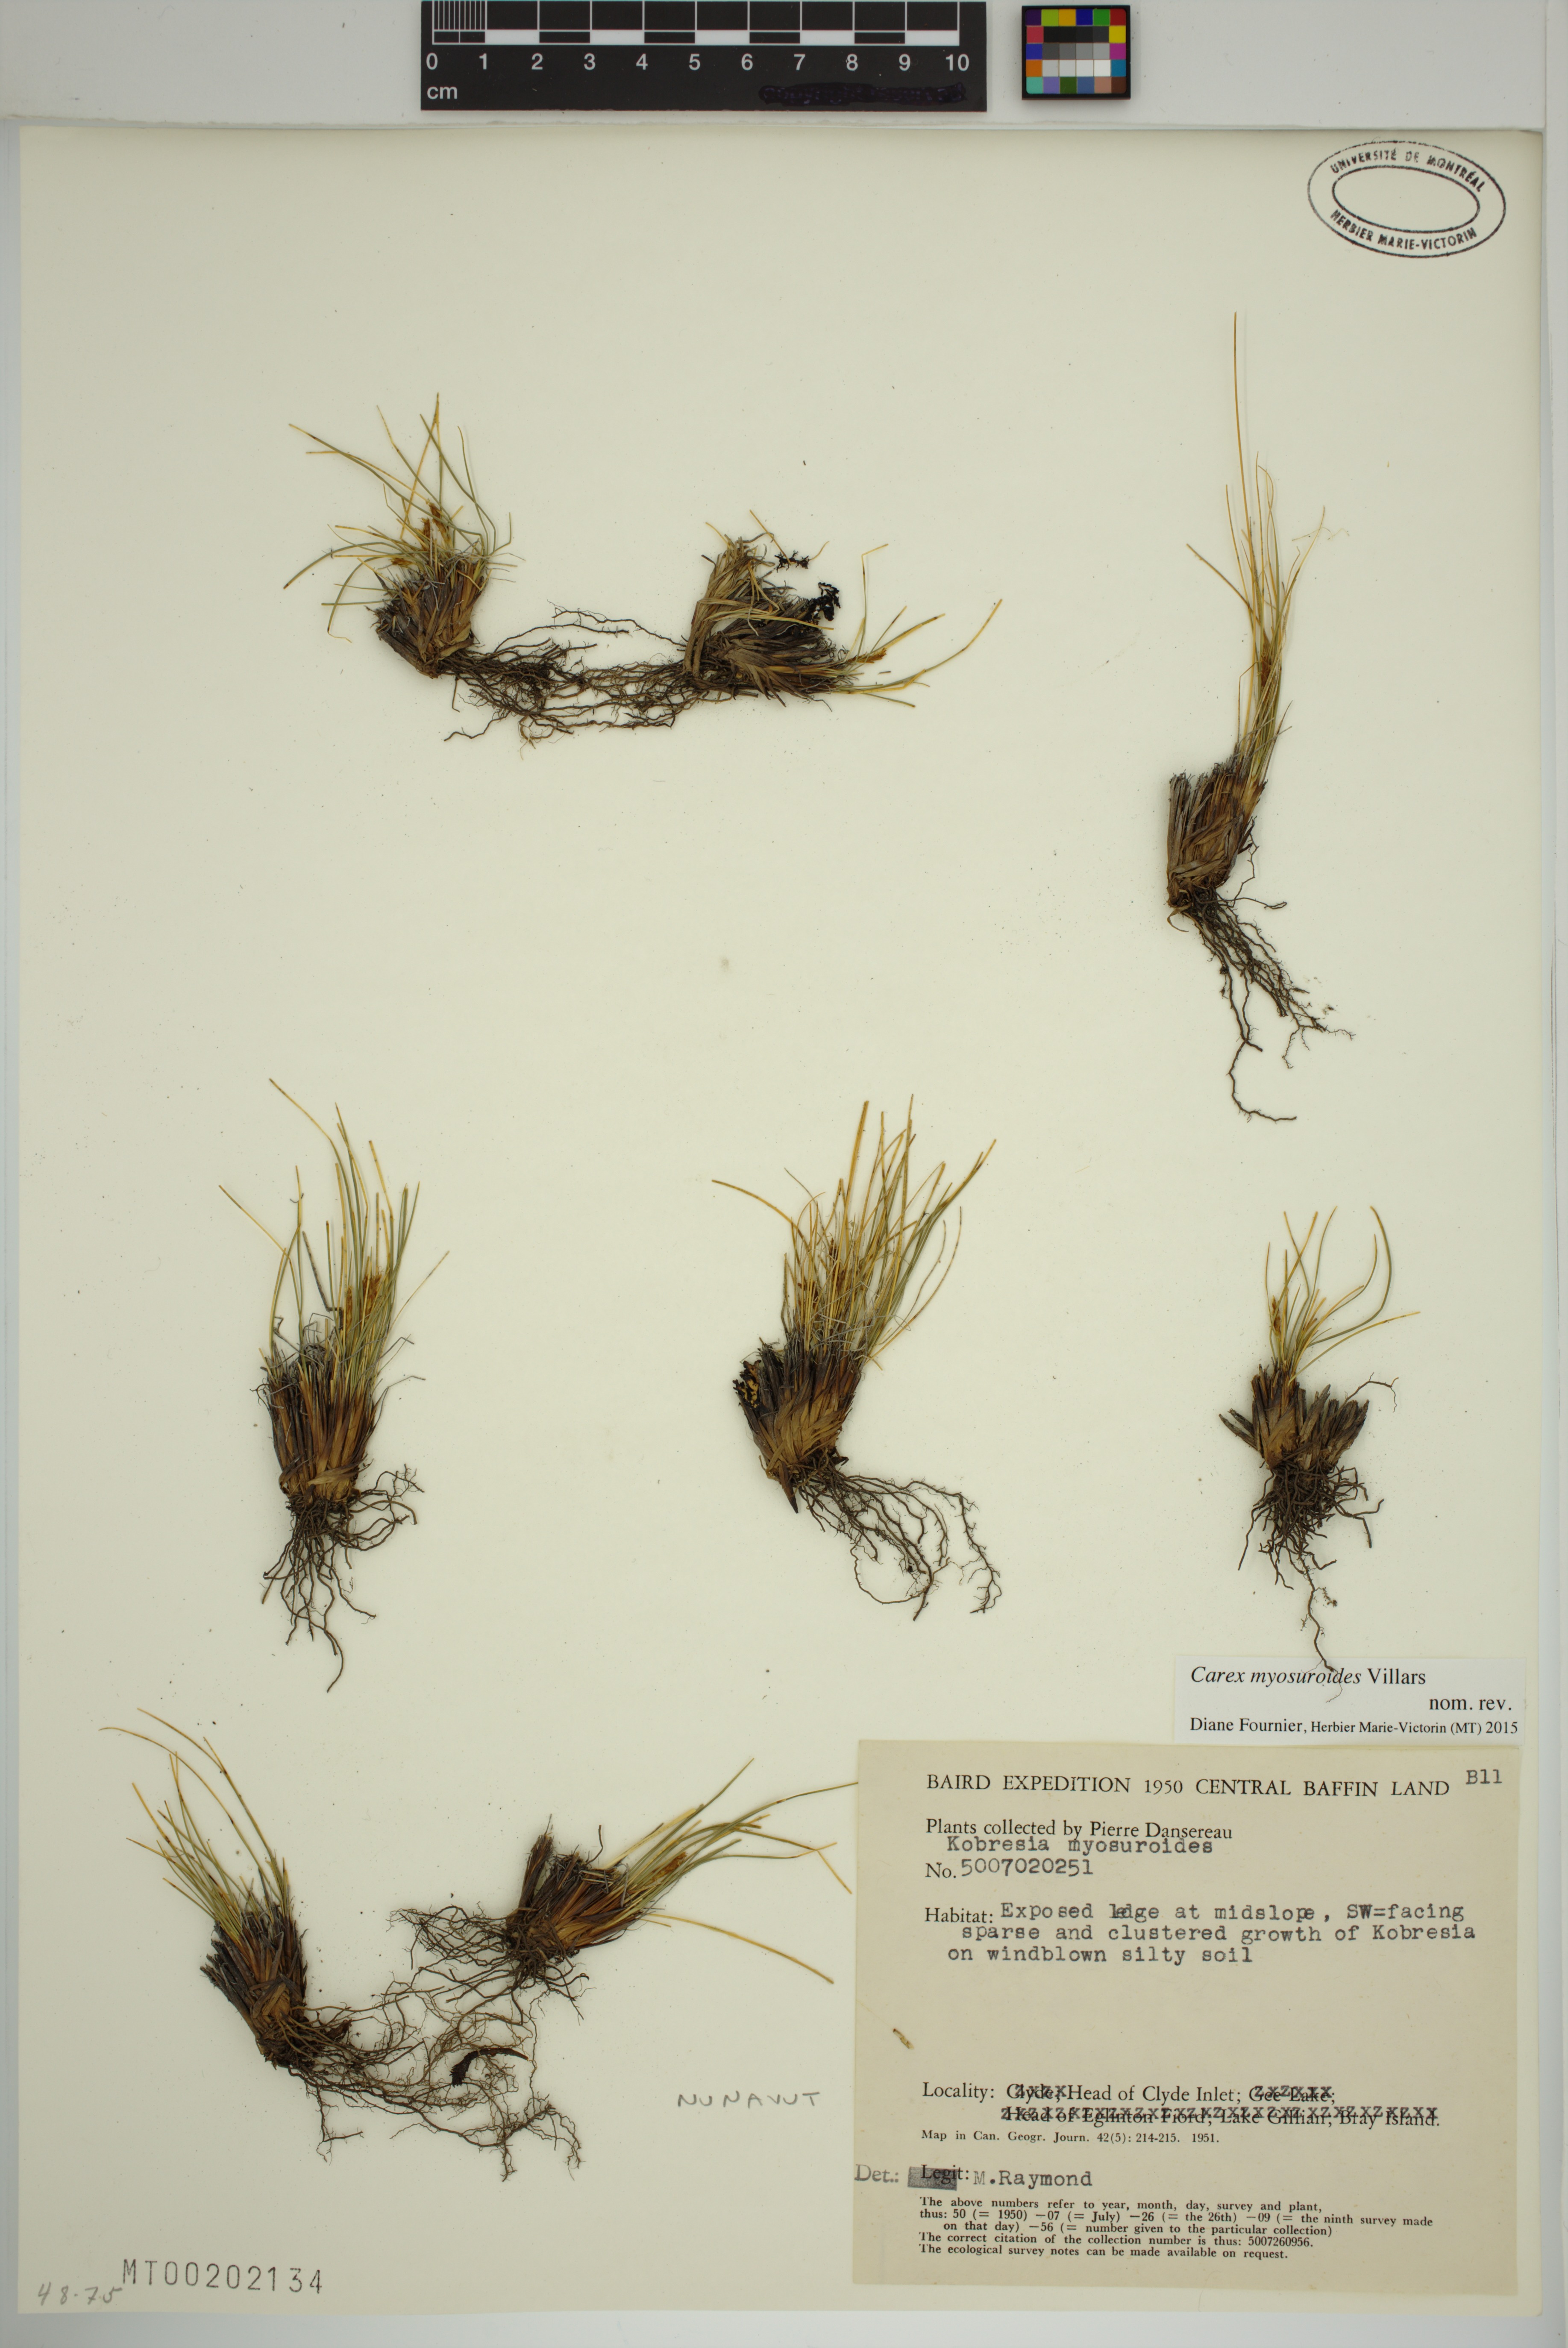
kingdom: Plantae
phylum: Tracheophyta
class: Liliopsida
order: Poales
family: Cyperaceae
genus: Carex
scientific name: Carex myosuroides
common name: Bellard's bog sedge
